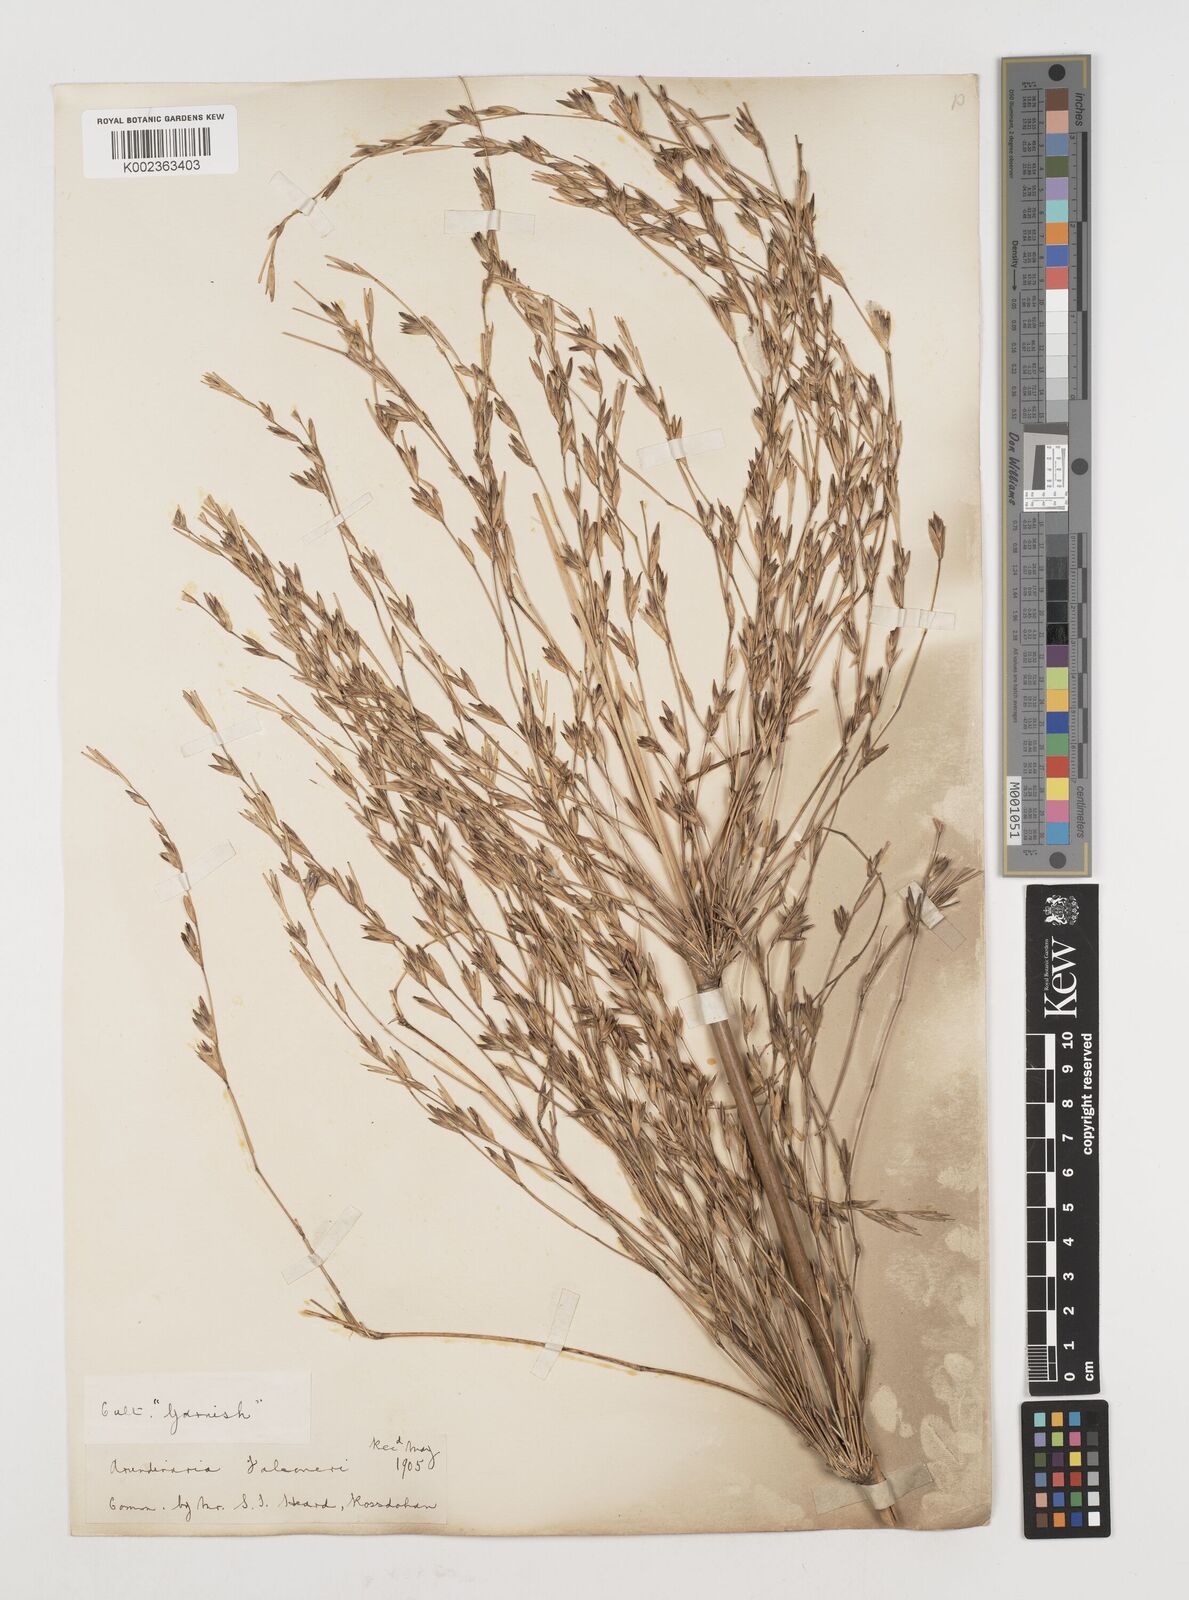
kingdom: Plantae
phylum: Tracheophyta
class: Liliopsida
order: Poales
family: Poaceae
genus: Himalayacalamus
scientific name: Himalayacalamus falconeri
